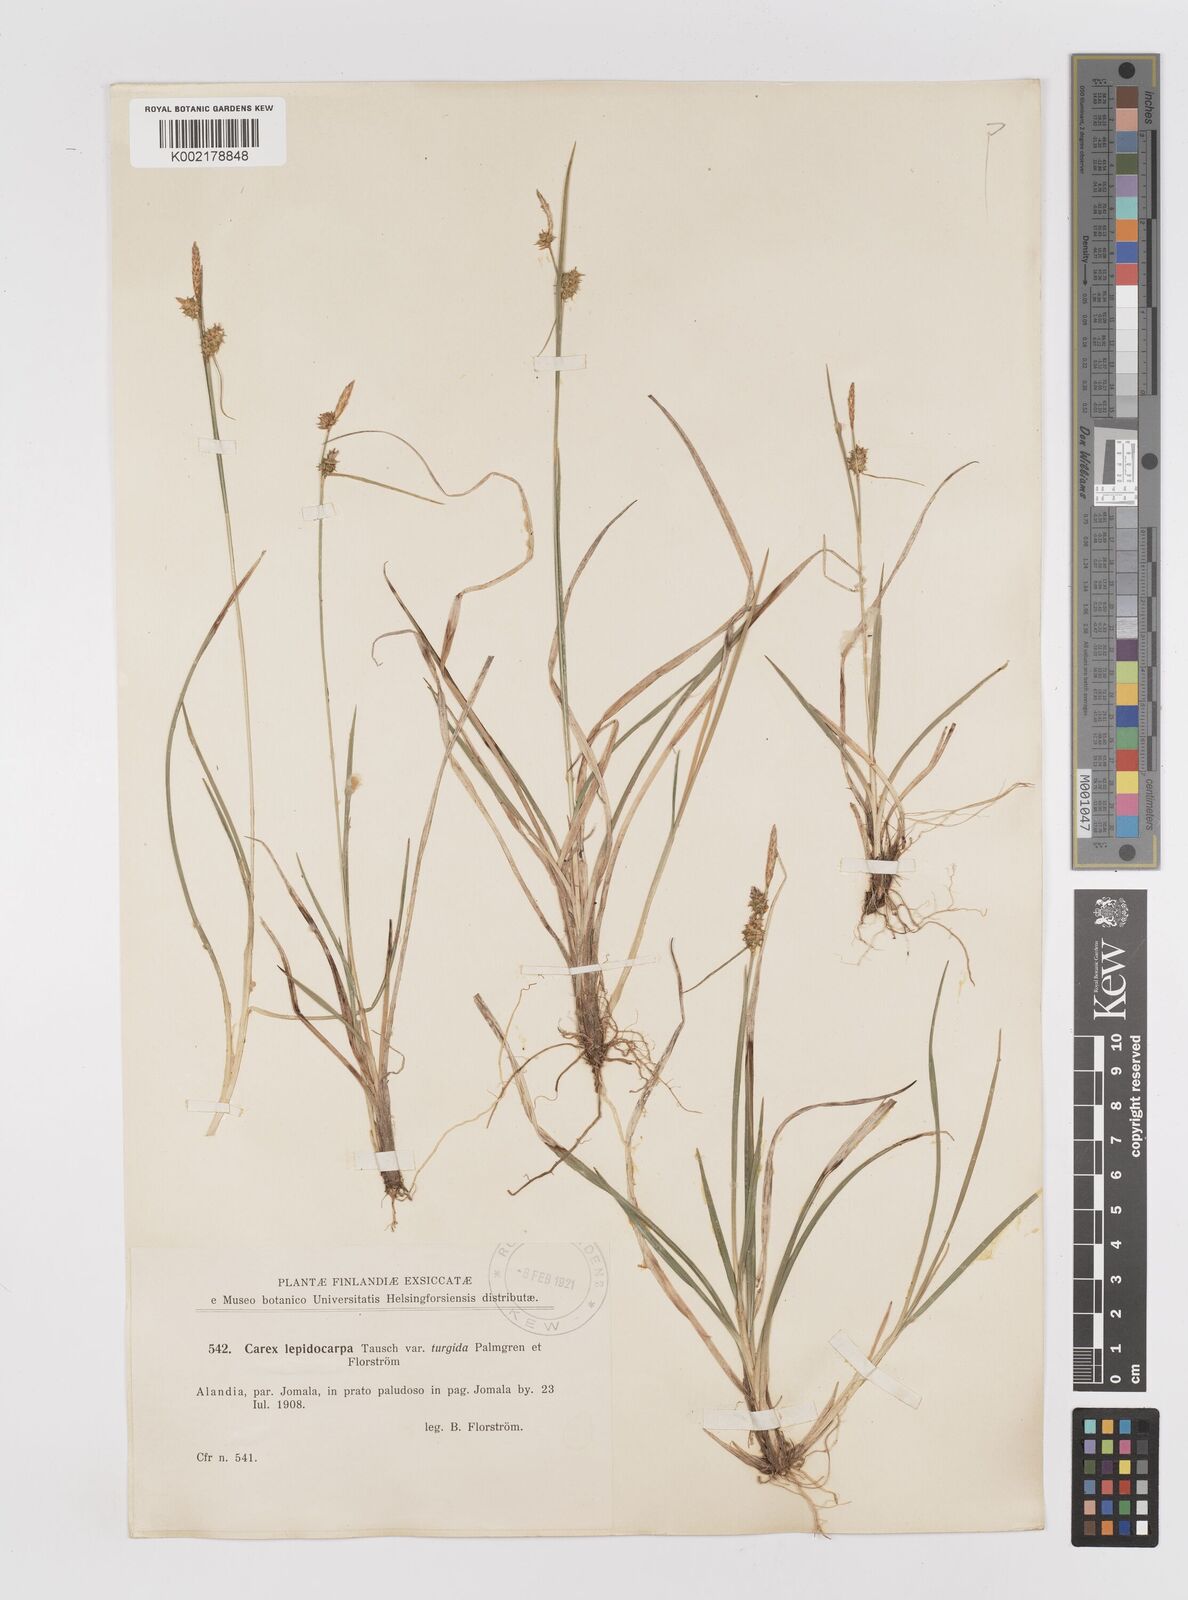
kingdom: Plantae
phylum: Tracheophyta
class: Liliopsida
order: Poales
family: Cyperaceae
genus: Carex
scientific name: Carex lepidocarpa
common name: Long-stalked yellow-sedge
